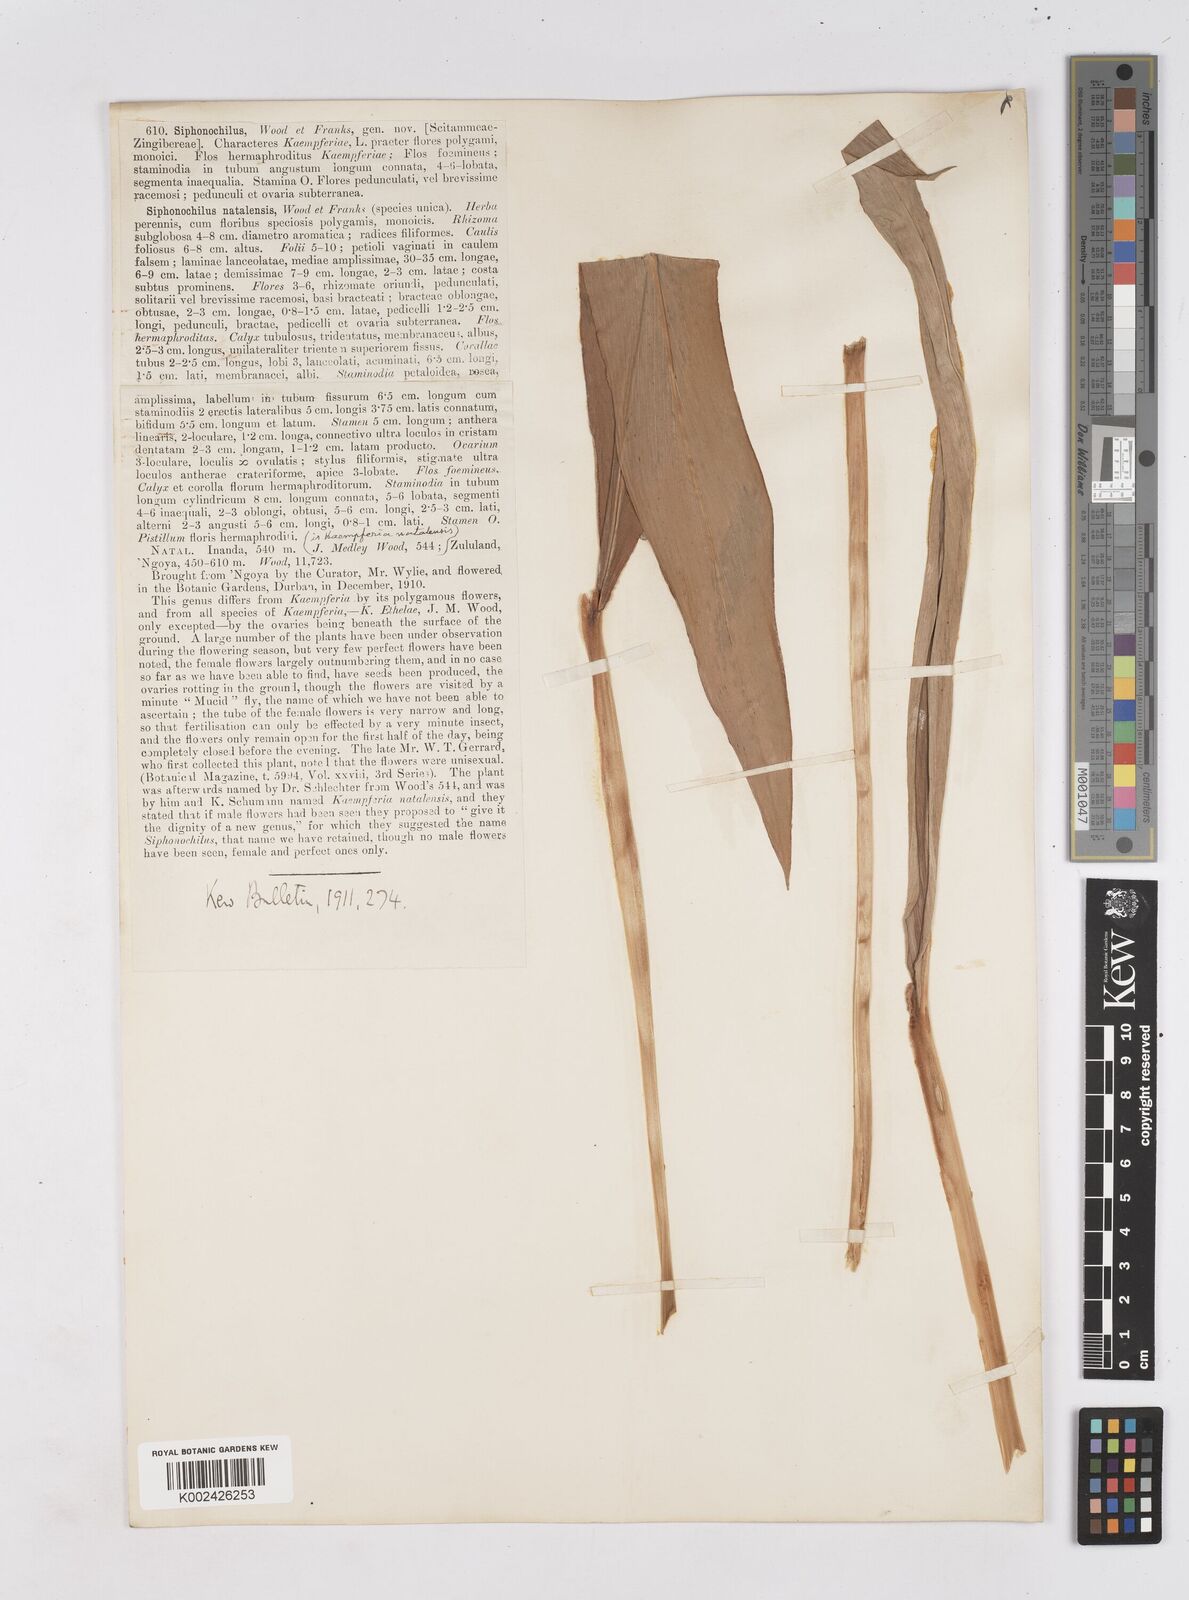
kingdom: Plantae
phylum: Tracheophyta
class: Liliopsida
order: Zingiberales
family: Zingiberaceae
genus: Siphonochilus
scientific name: Siphonochilus aethiopicus
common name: African-ginger
